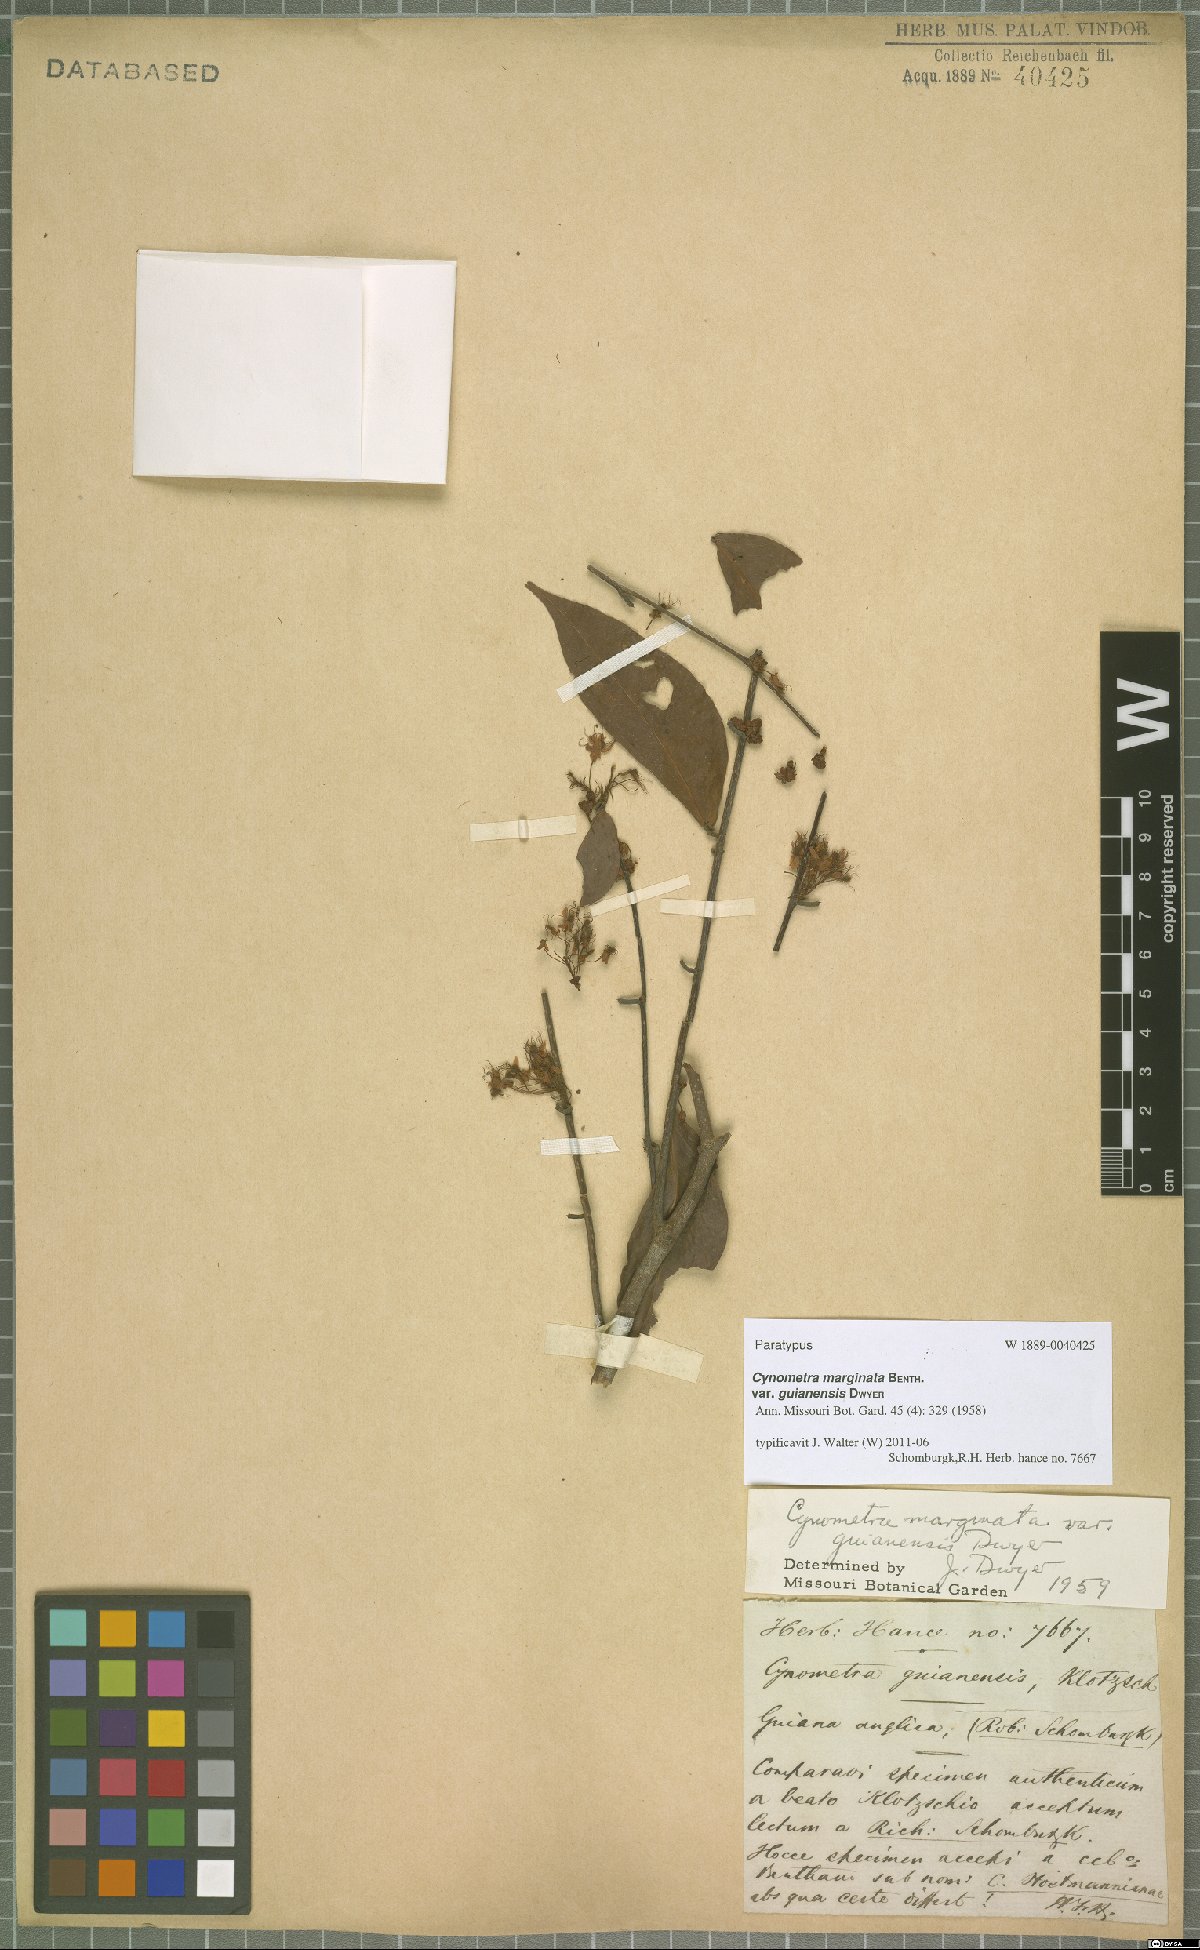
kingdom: Plantae
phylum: Tracheophyta
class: Magnoliopsida
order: Fabales
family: Fabaceae
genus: Cynometra
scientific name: Cynometra marginata
